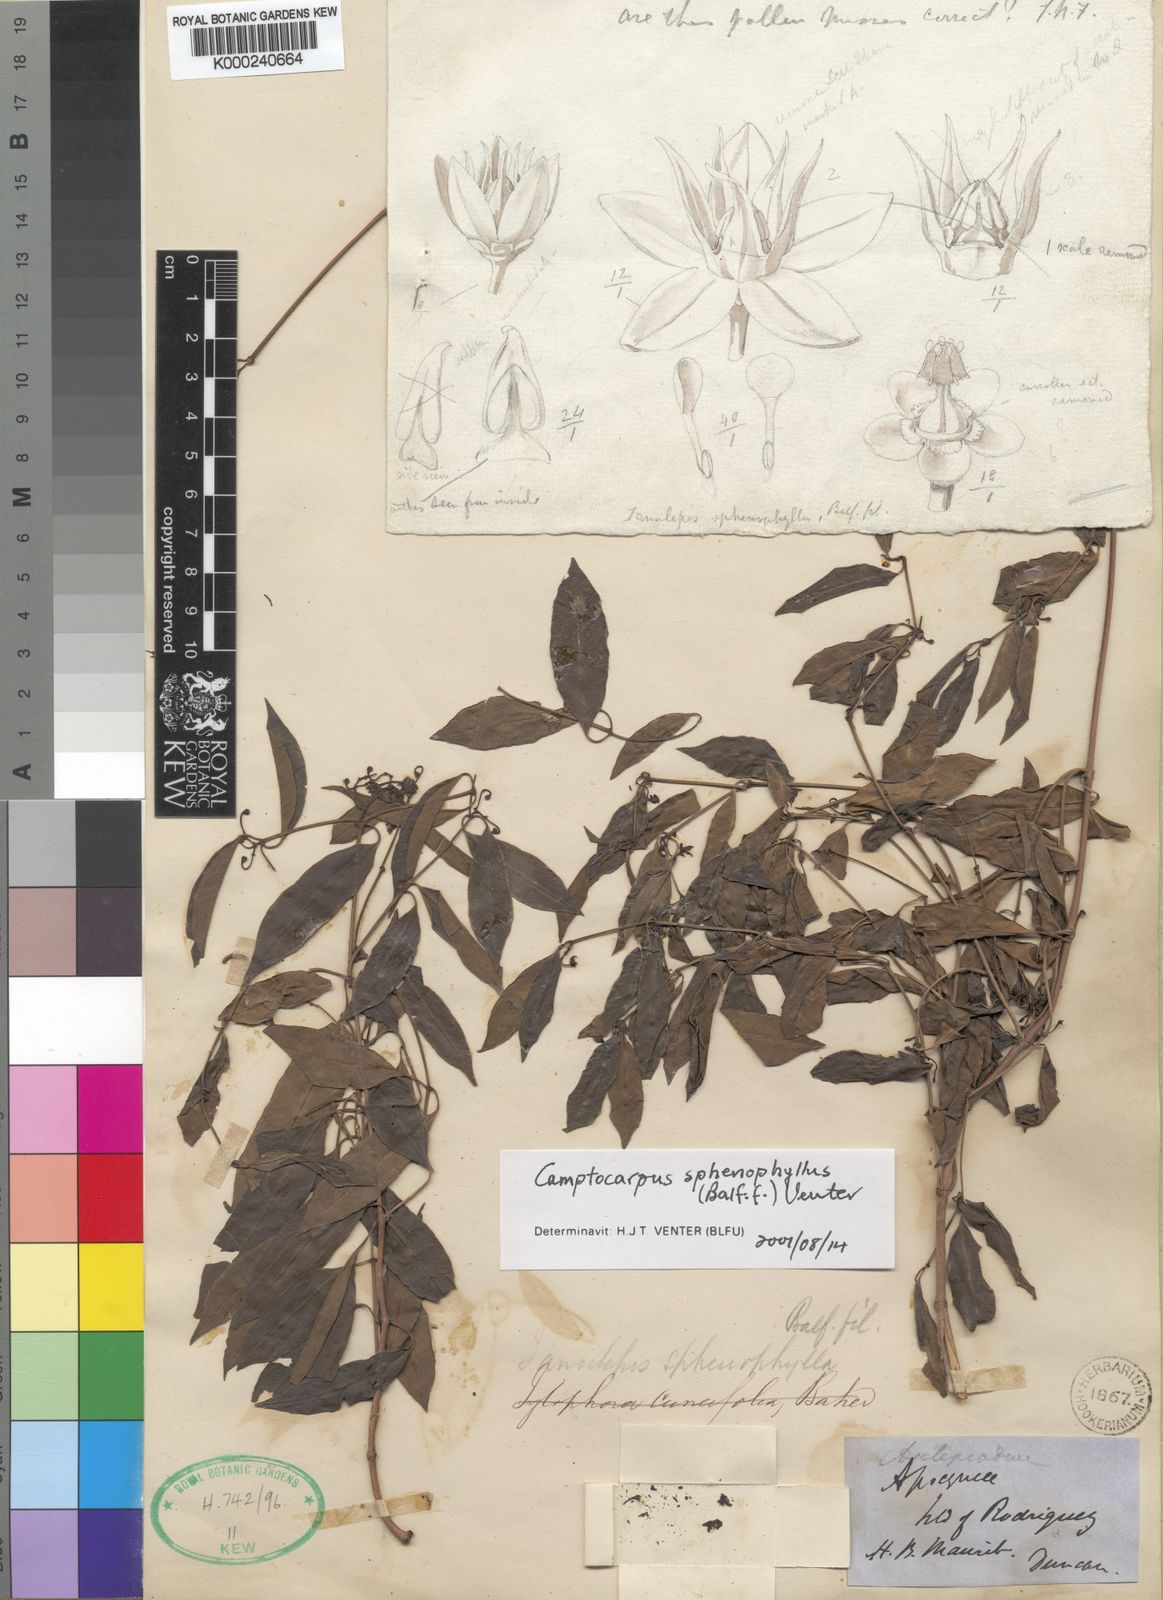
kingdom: Plantae
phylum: Tracheophyta
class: Magnoliopsida
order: Gentianales
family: Apocynaceae
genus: Camptocarpus
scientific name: Camptocarpus sphenophyllus
